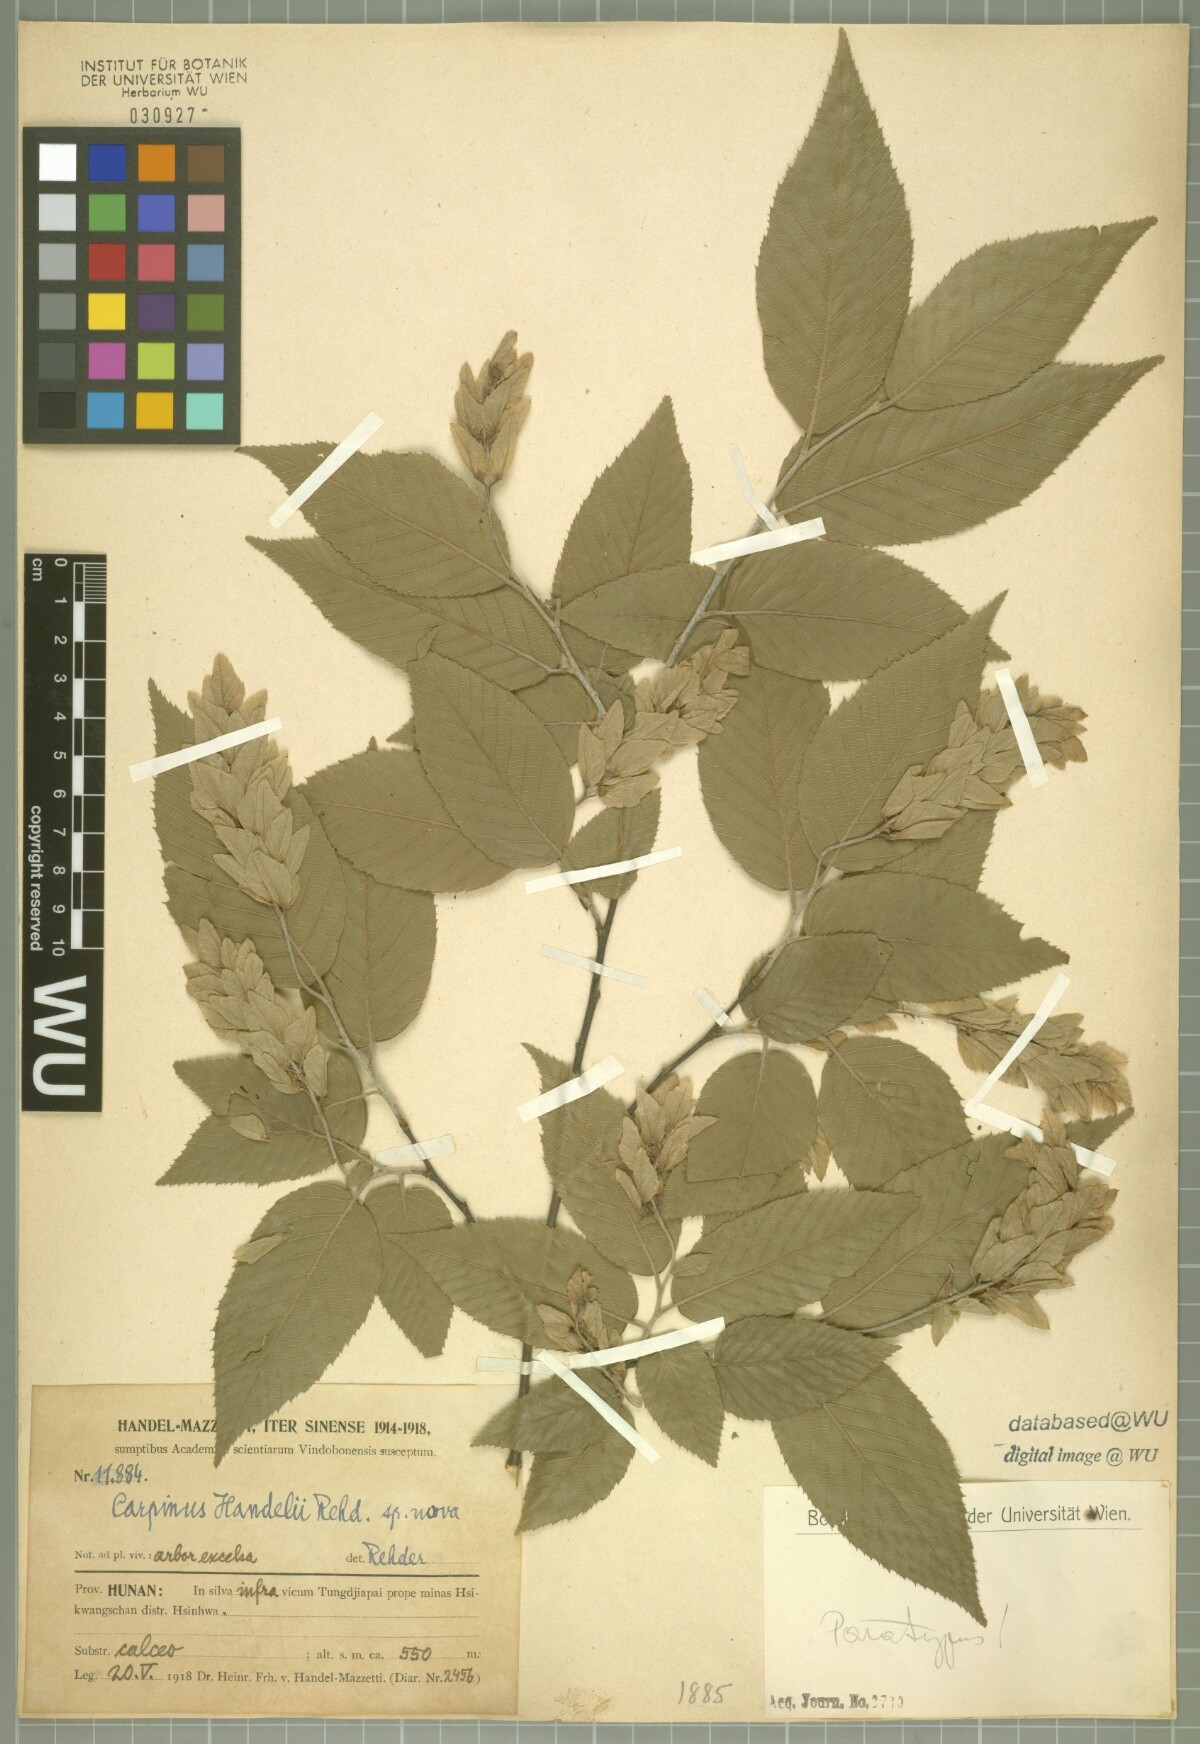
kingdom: Plantae
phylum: Tracheophyta
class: Magnoliopsida
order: Fagales
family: Betulaceae
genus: Carpinus
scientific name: Carpinus polyneura
